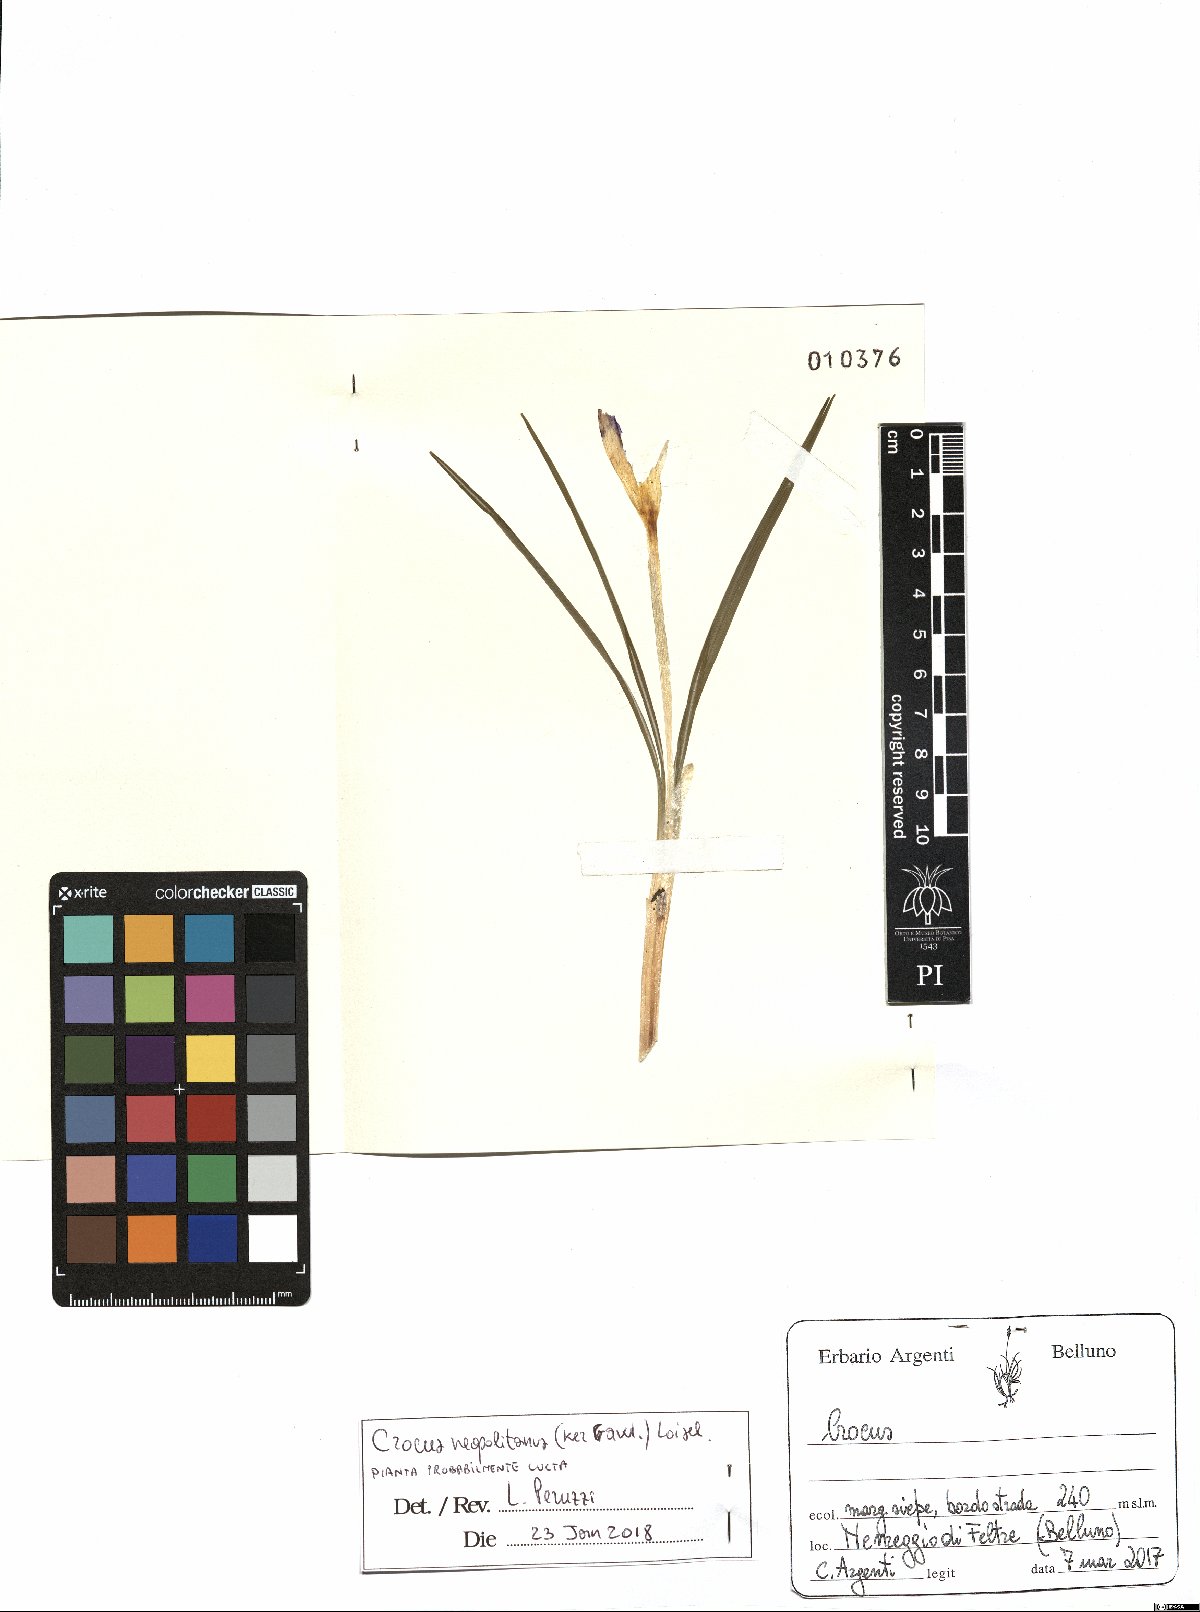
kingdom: Plantae
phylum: Tracheophyta
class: Liliopsida
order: Asparagales
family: Iridaceae
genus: Crocus
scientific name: Crocus neapolitanus
